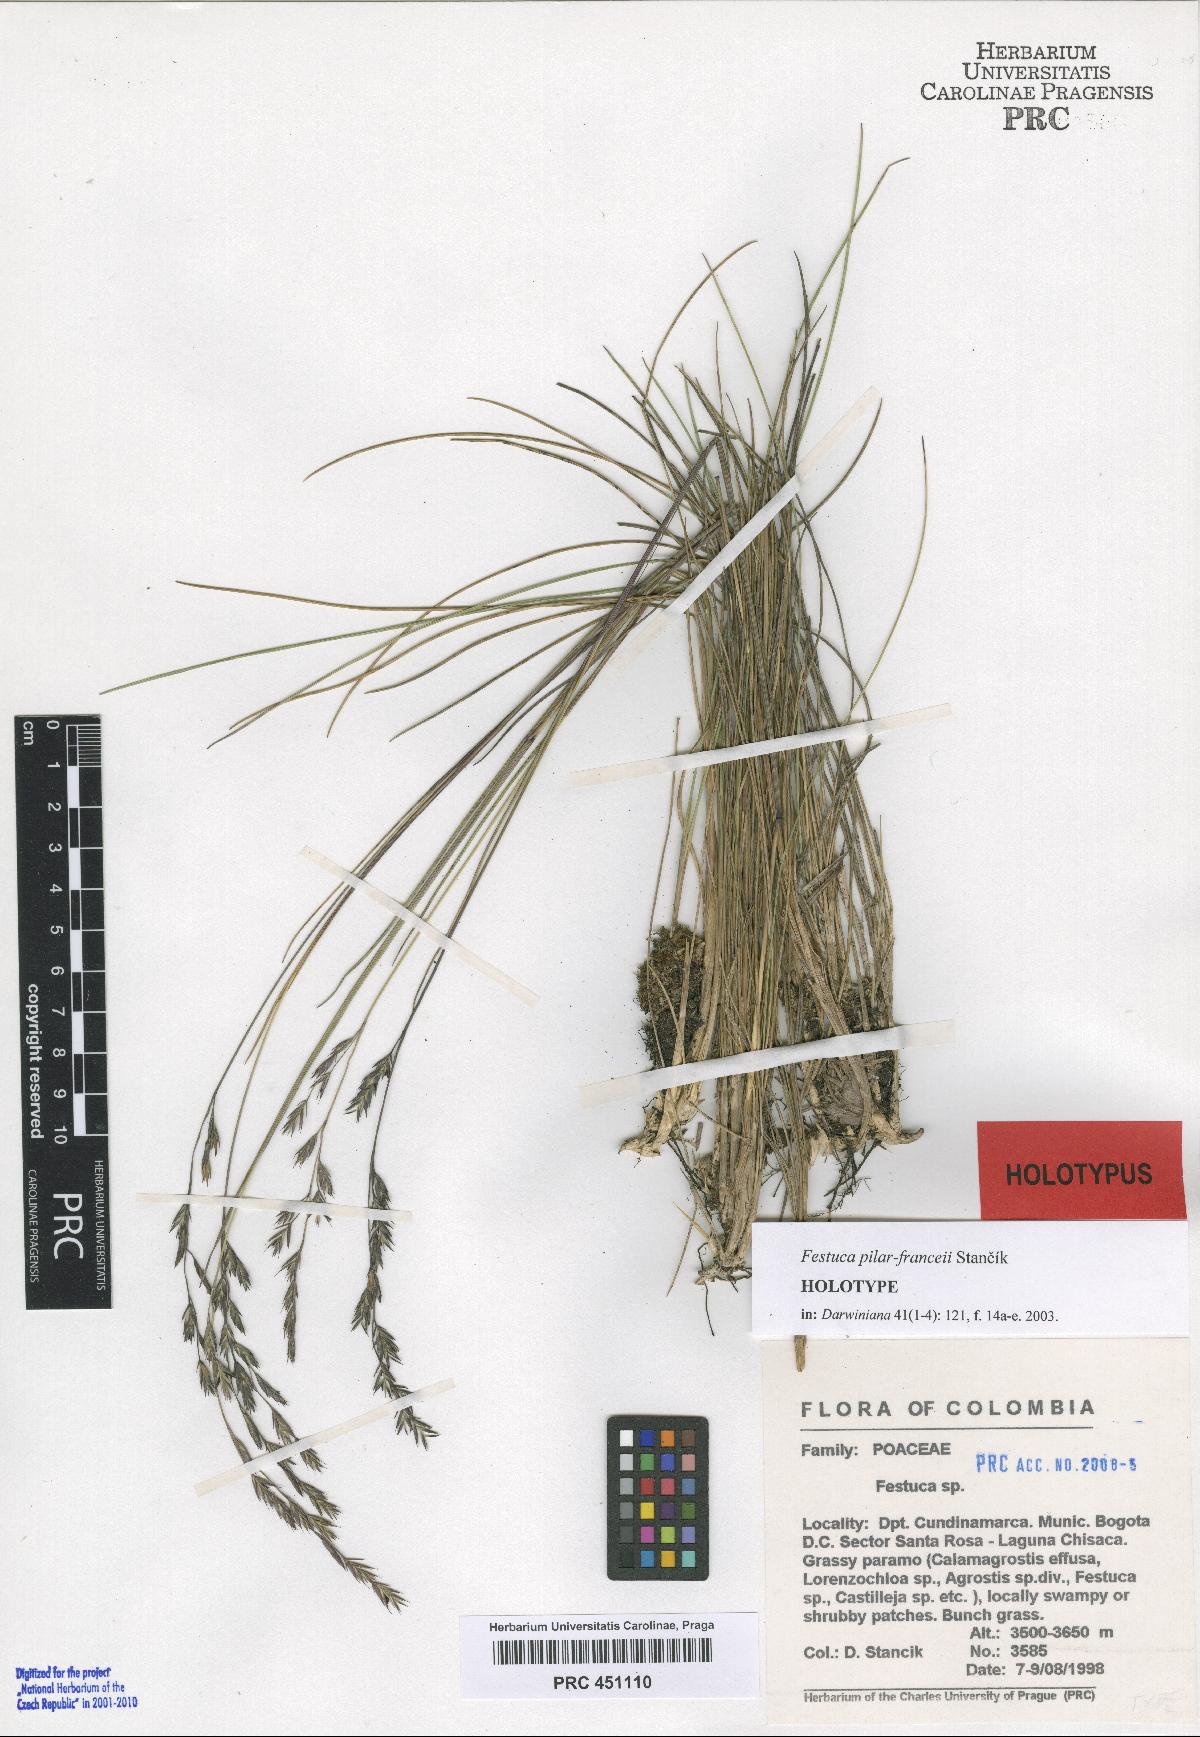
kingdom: Plantae
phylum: Tracheophyta
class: Liliopsida
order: Poales
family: Poaceae
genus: Festuca
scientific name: Festuca pilar-franceii
